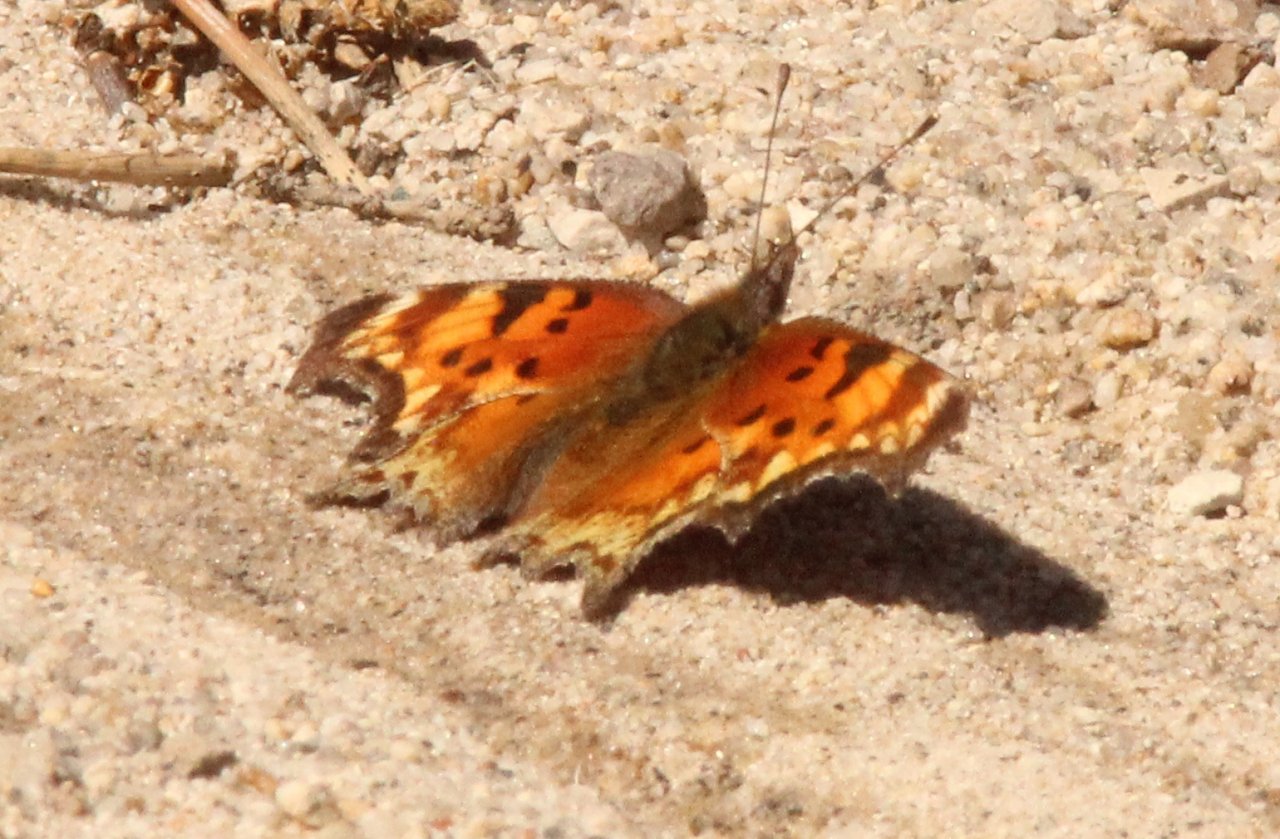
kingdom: Animalia
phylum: Arthropoda
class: Insecta
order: Lepidoptera
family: Nymphalidae
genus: Polygonia
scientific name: Polygonia gracilis
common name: Hoary Comma
